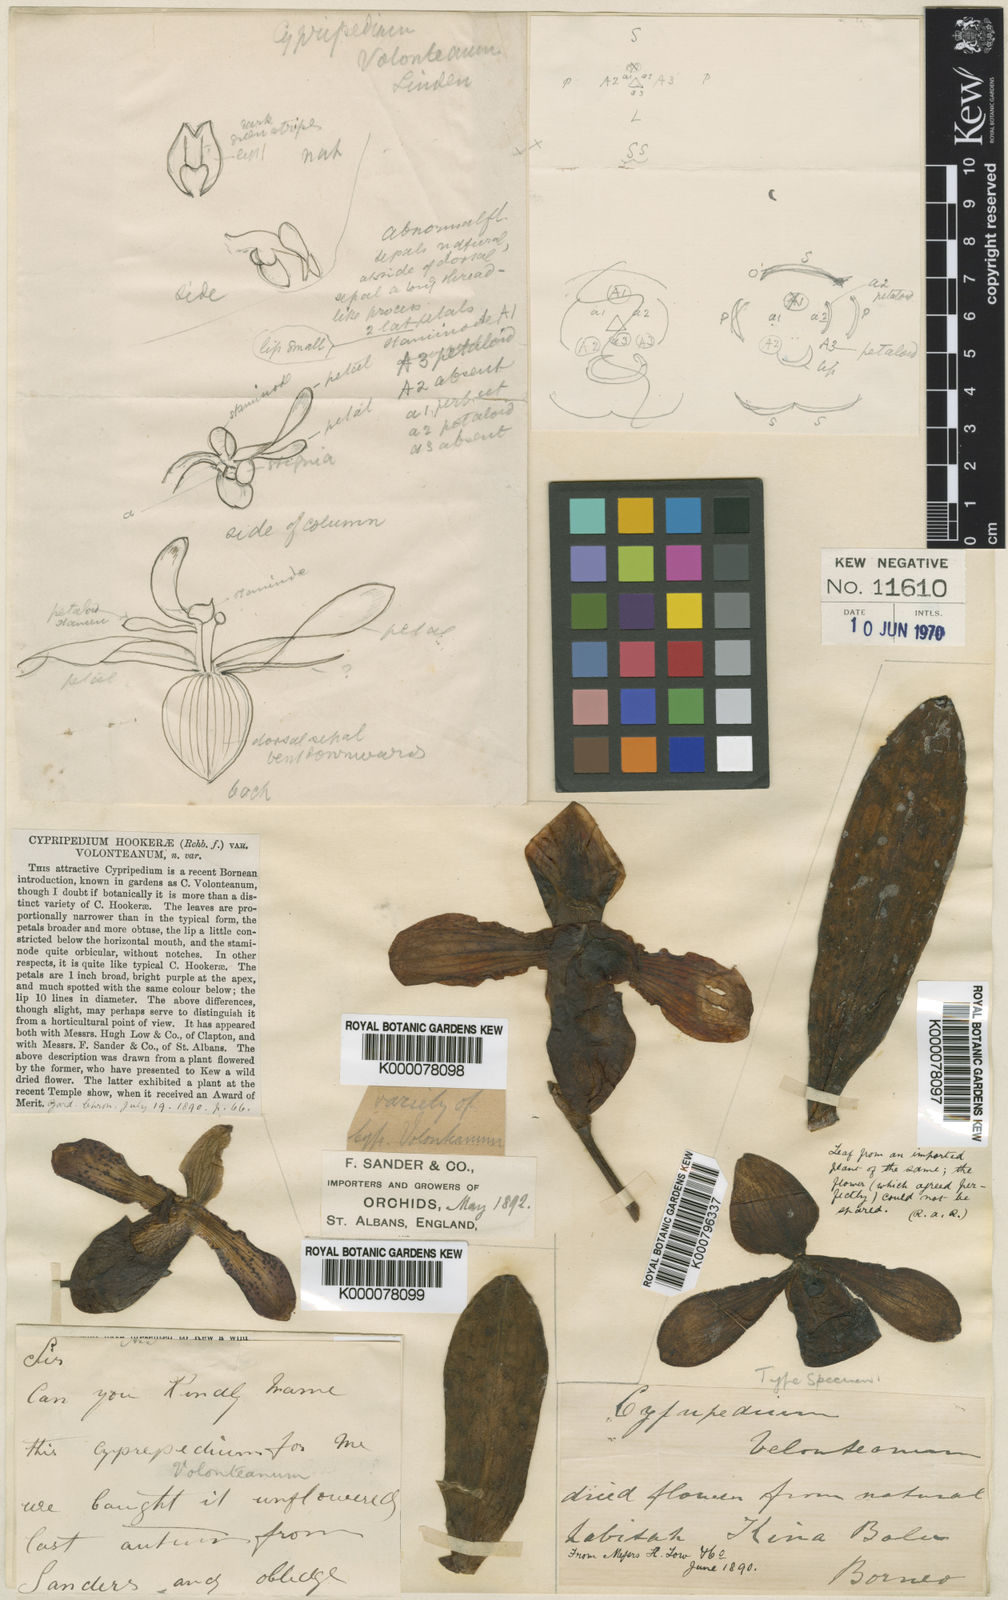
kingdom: Plantae
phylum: Tracheophyta
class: Liliopsida
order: Asparagales
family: Orchidaceae
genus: Paphiopedilum
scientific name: Paphiopedilum hookerae
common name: Hooker's paphiopedilum
